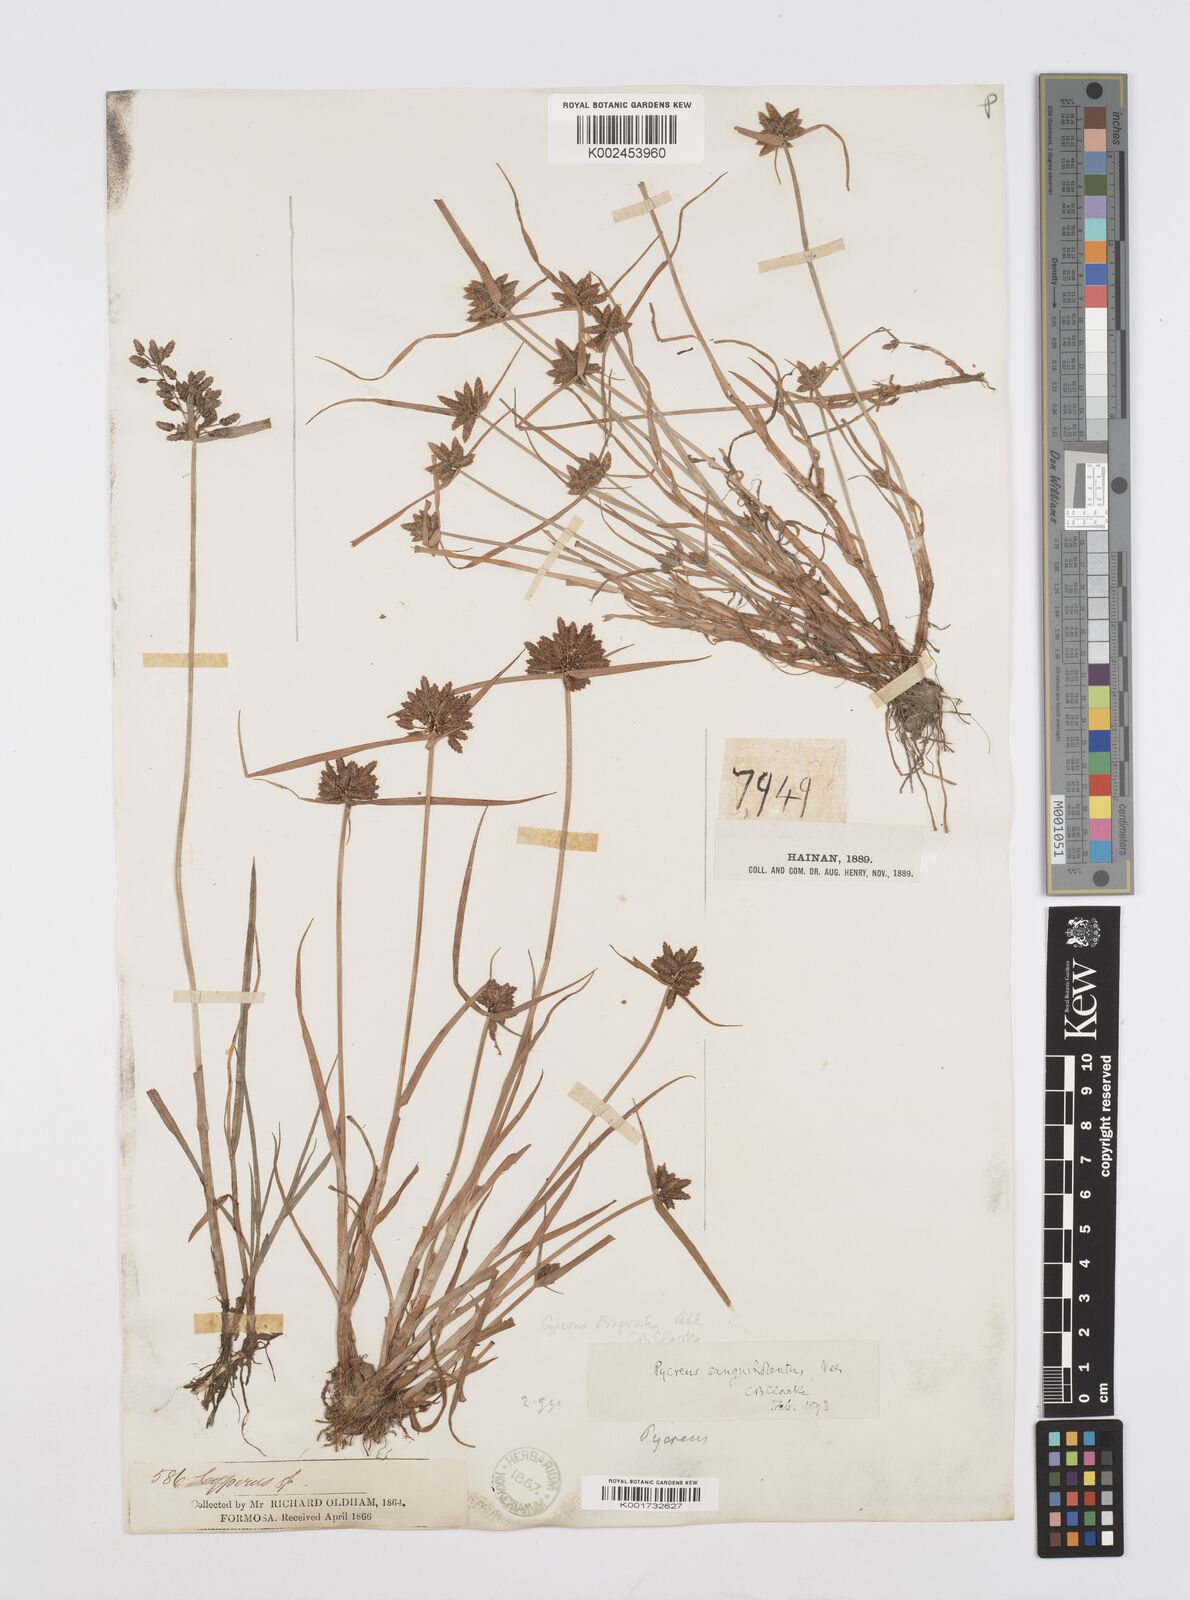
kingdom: Plantae
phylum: Tracheophyta
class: Liliopsida
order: Poales
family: Cyperaceae
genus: Cyperus
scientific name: Cyperus sanguinolentus
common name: Purpleglume flatsedge
